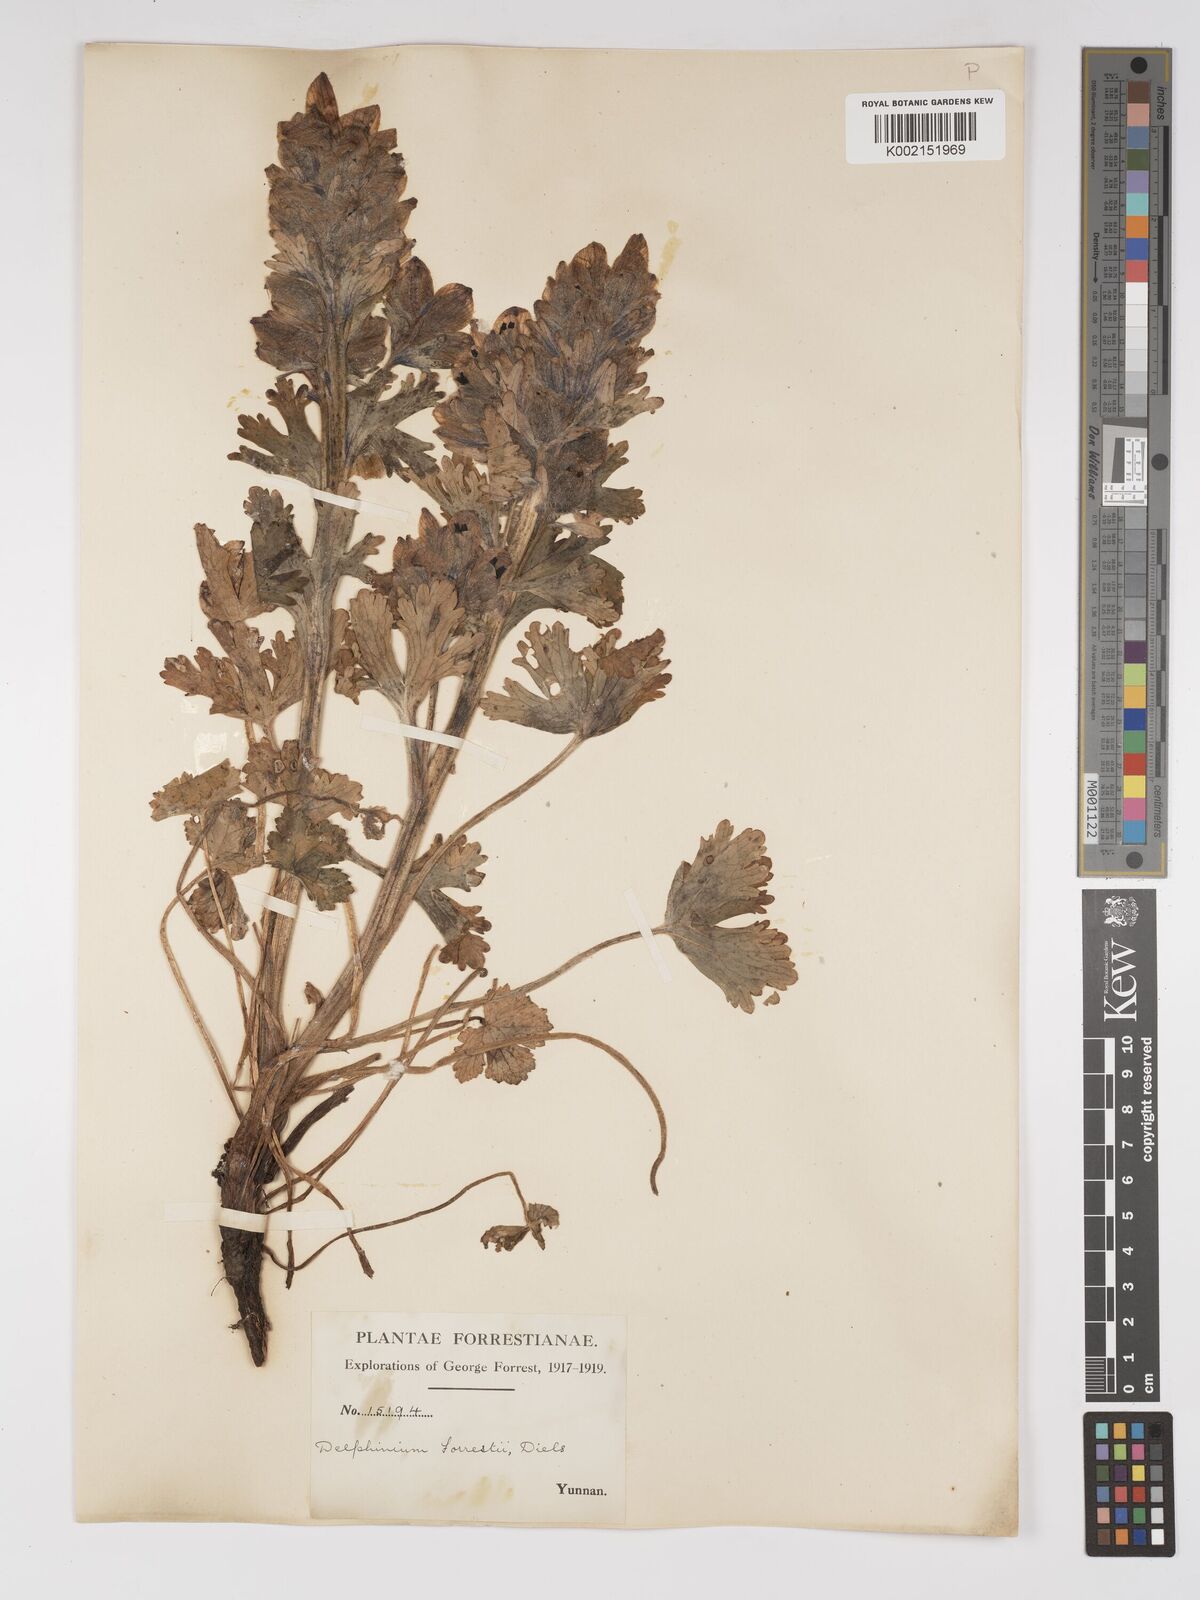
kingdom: Plantae
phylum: Tracheophyta
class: Magnoliopsida
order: Ranunculales
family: Ranunculaceae
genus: Delphinium
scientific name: Delphinium forrestii
